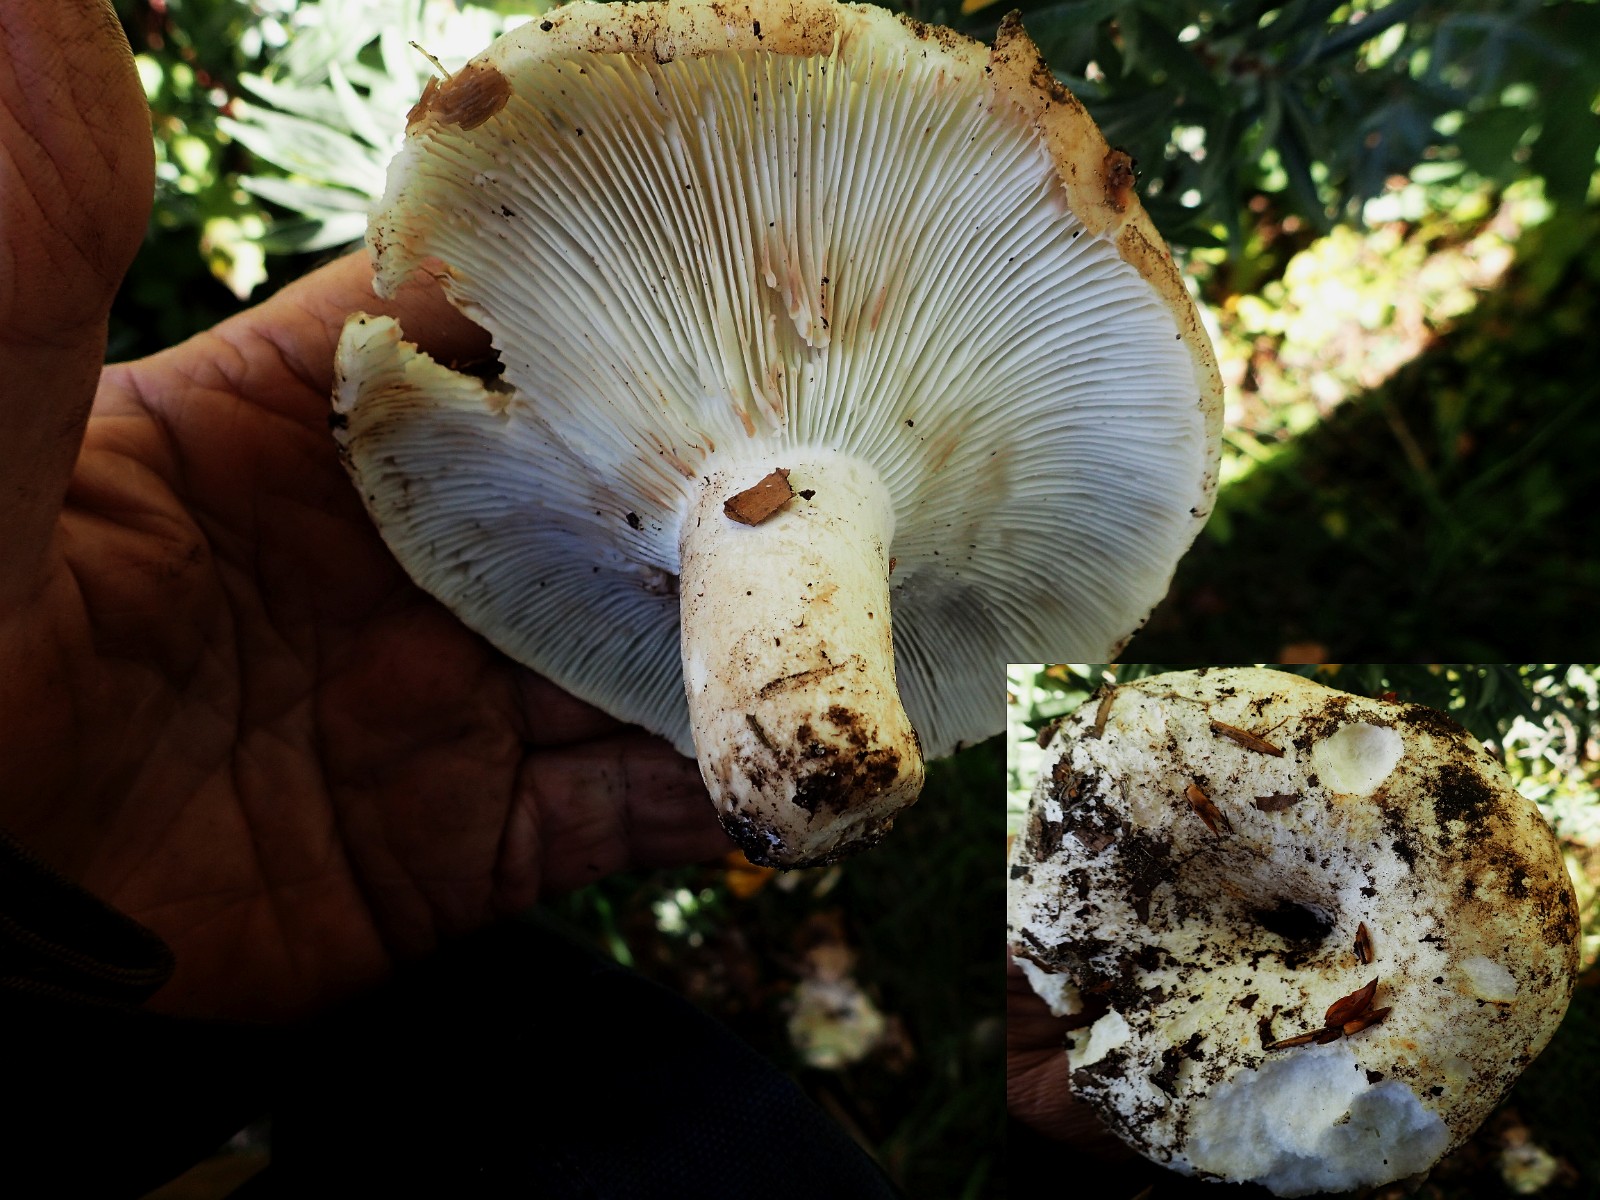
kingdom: Fungi
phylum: Basidiomycota
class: Agaricomycetes
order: Russulales
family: Russulaceae
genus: Russula
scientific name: Russula chloroides
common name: grønhalset tragt-skørhat
